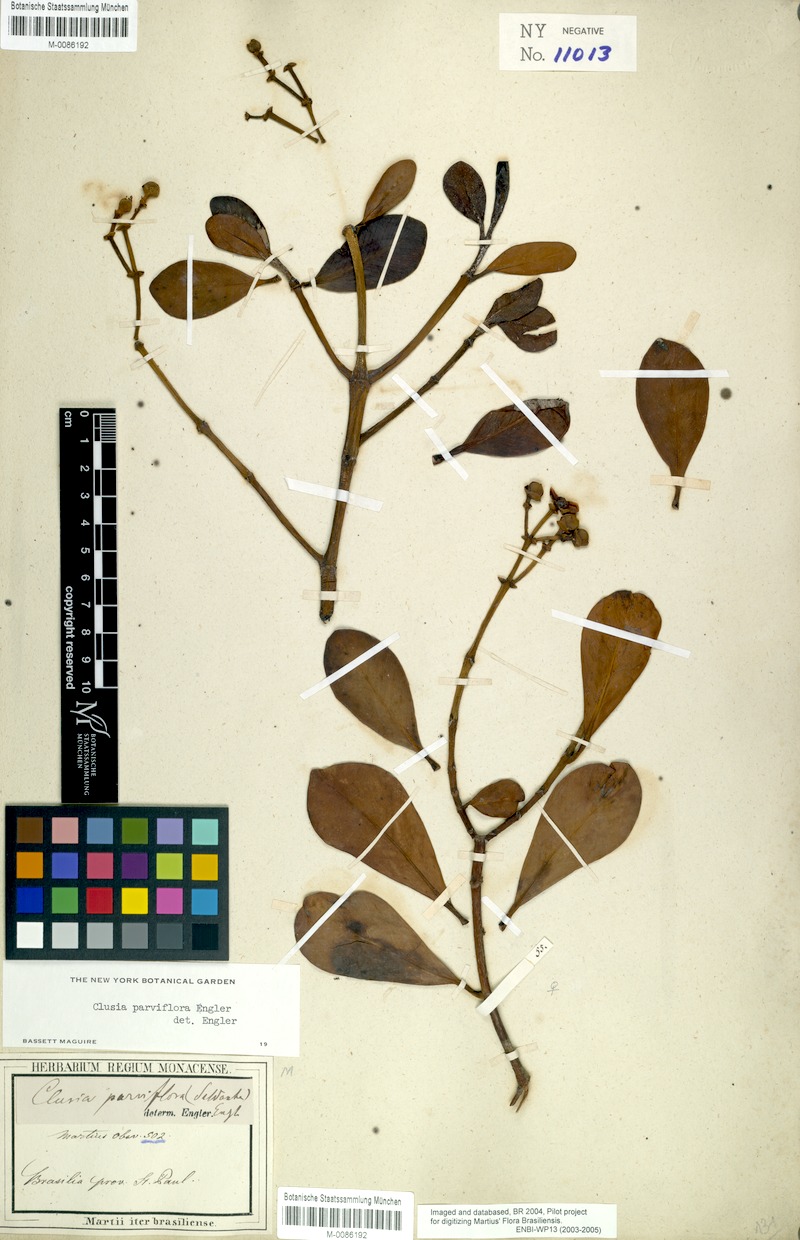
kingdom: Plantae
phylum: Tracheophyta
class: Magnoliopsida
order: Malpighiales
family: Clusiaceae
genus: Clusia
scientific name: Clusia criuva
